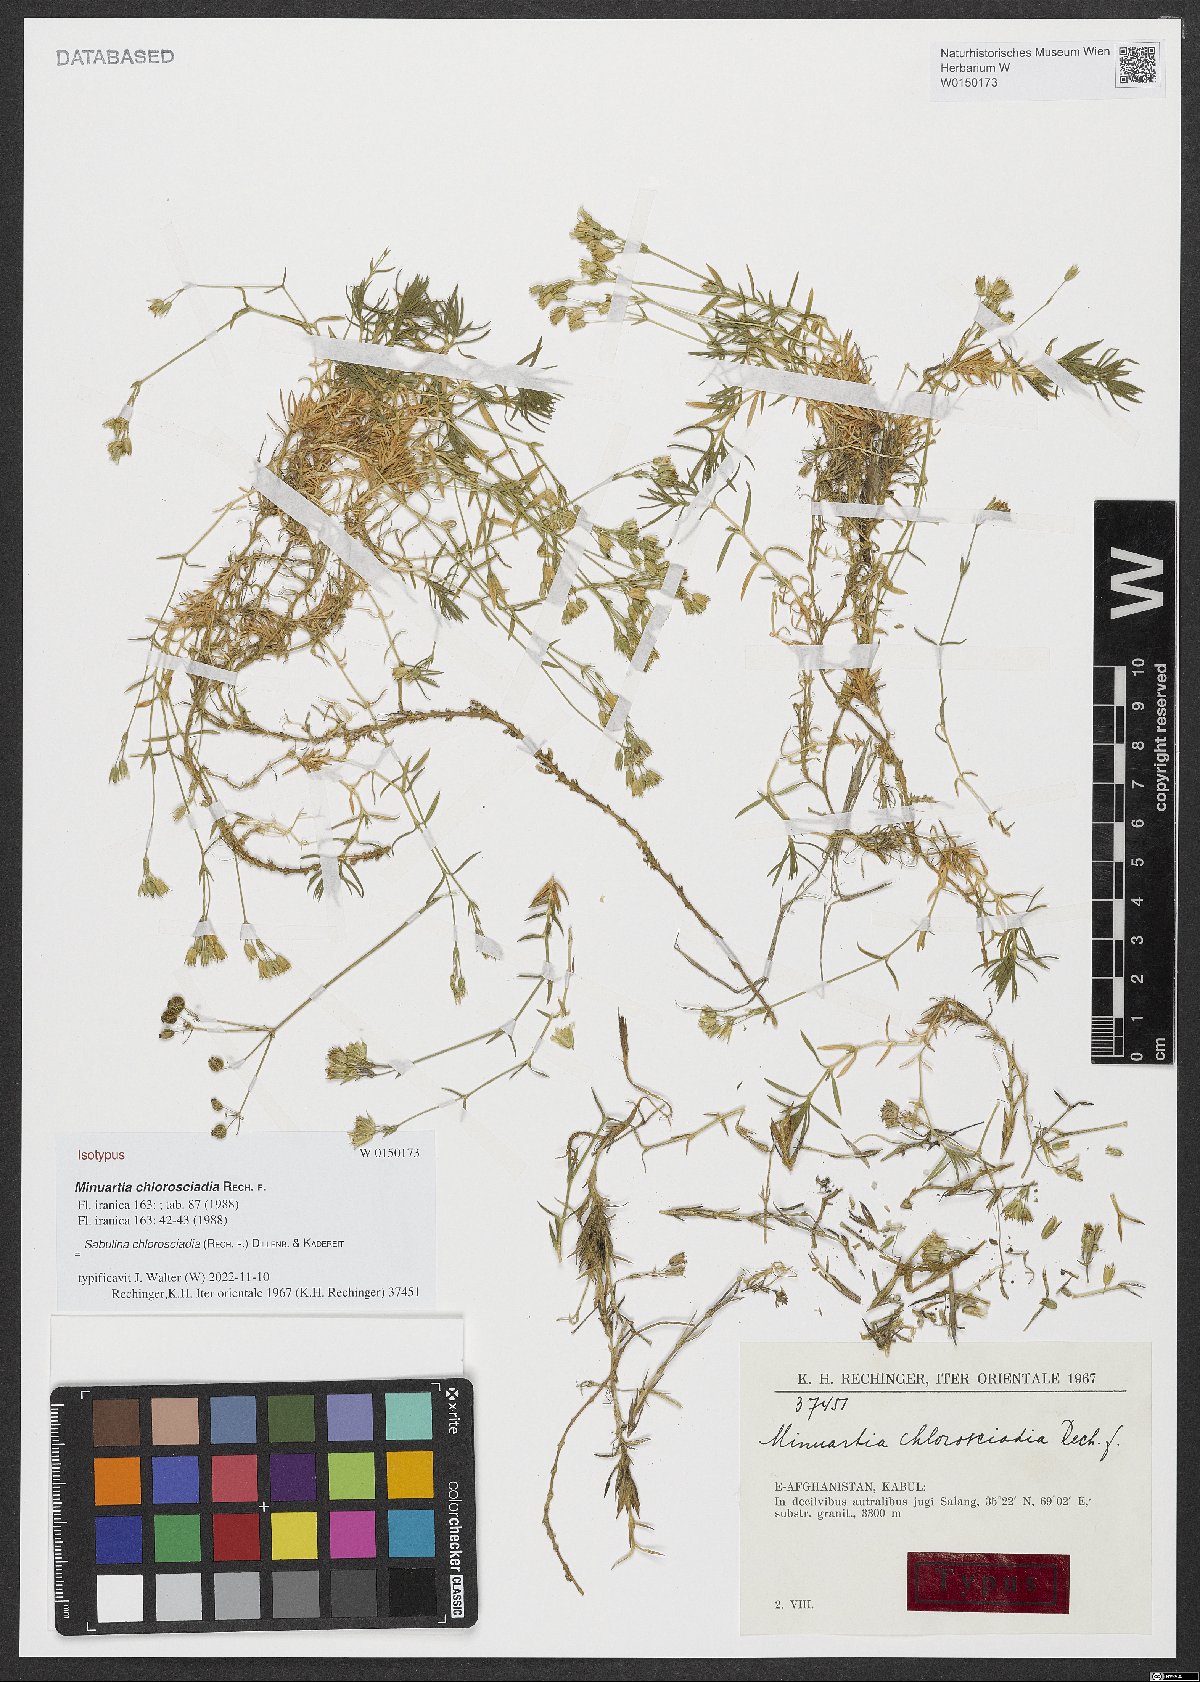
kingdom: Plantae
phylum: Tracheophyta
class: Magnoliopsida
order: Caryophyllales
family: Caryophyllaceae
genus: Sabulina
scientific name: Sabulina chlorosciadia
